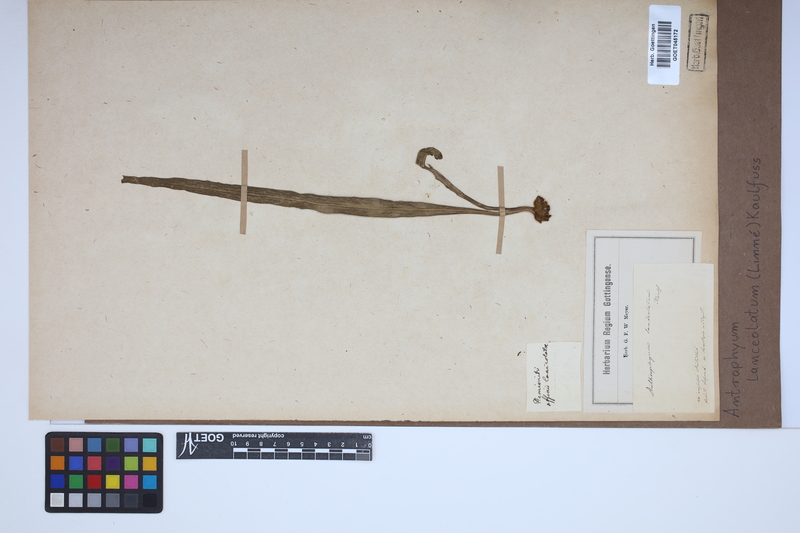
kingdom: Plantae
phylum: Tracheophyta
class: Polypodiopsida
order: Polypodiales
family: Pteridaceae
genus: Polytaenium
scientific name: Polytaenium feei
